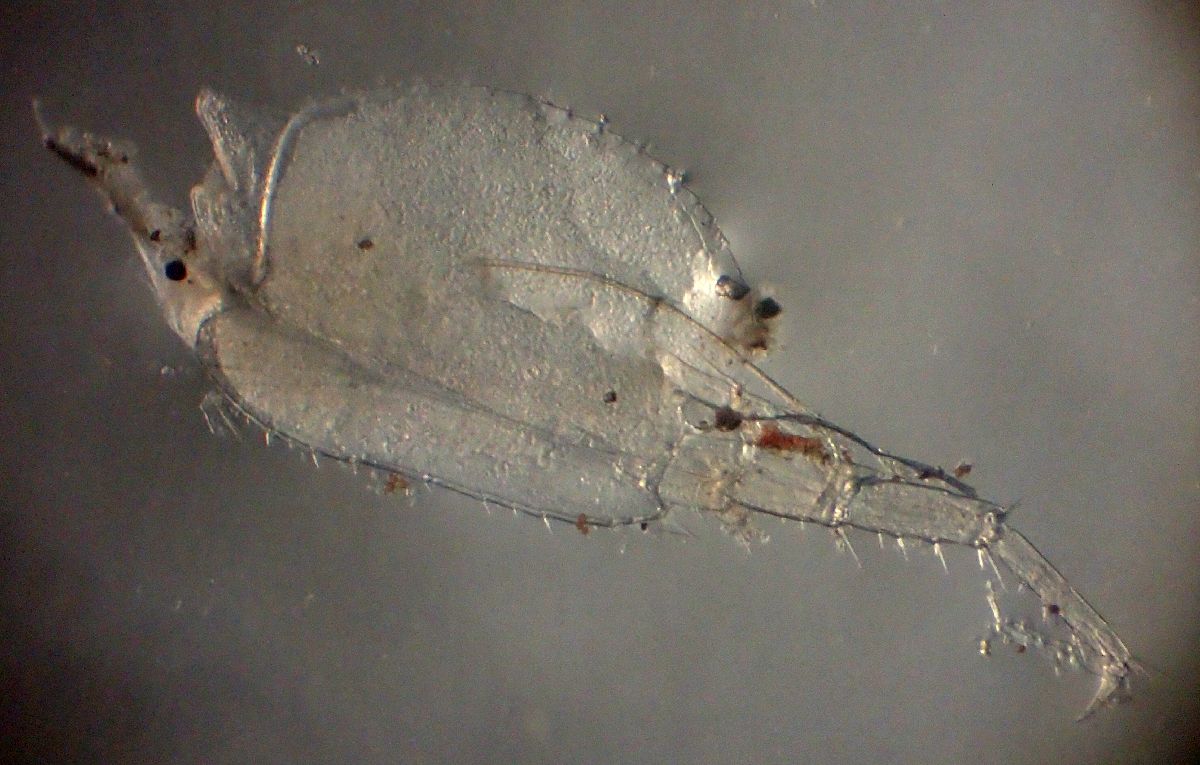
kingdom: Animalia
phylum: Arthropoda
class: Malacostraca
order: Amphipoda
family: Uristidae
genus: Anonyx
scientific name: Anonyx lilljeborgi
